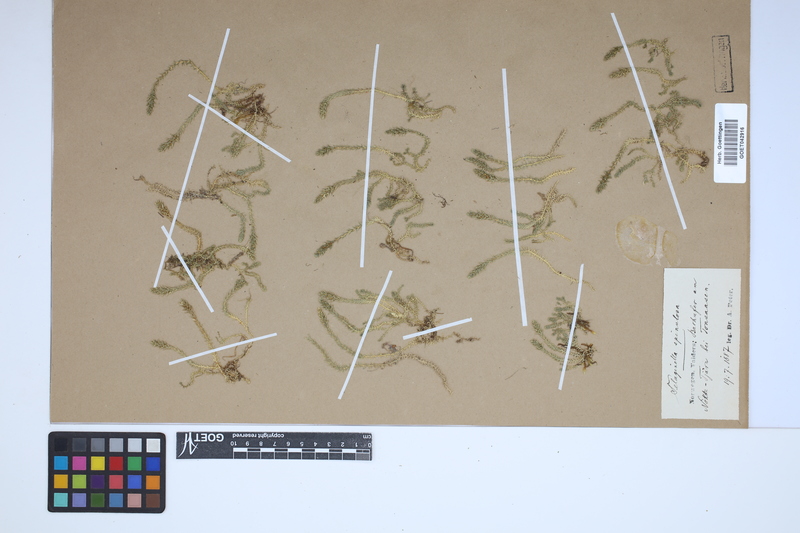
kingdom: Plantae
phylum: Tracheophyta
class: Lycopodiopsida
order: Selaginellales
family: Selaginellaceae
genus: Selaginella
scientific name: Selaginella selaginoides
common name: Prickly mountain-moss
